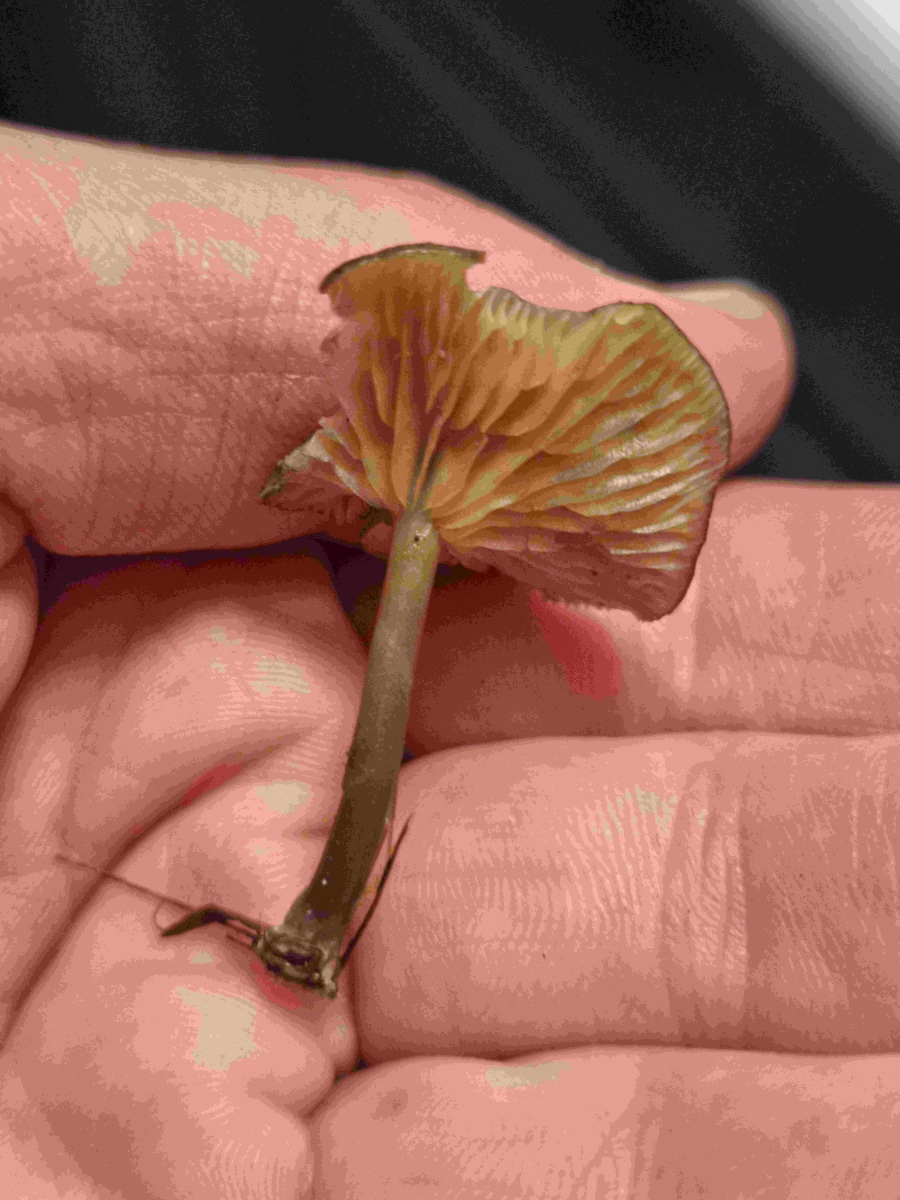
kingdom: Fungi
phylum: Basidiomycota
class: Agaricomycetes
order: Agaricales
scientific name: Agaricales
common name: champignonordenen
